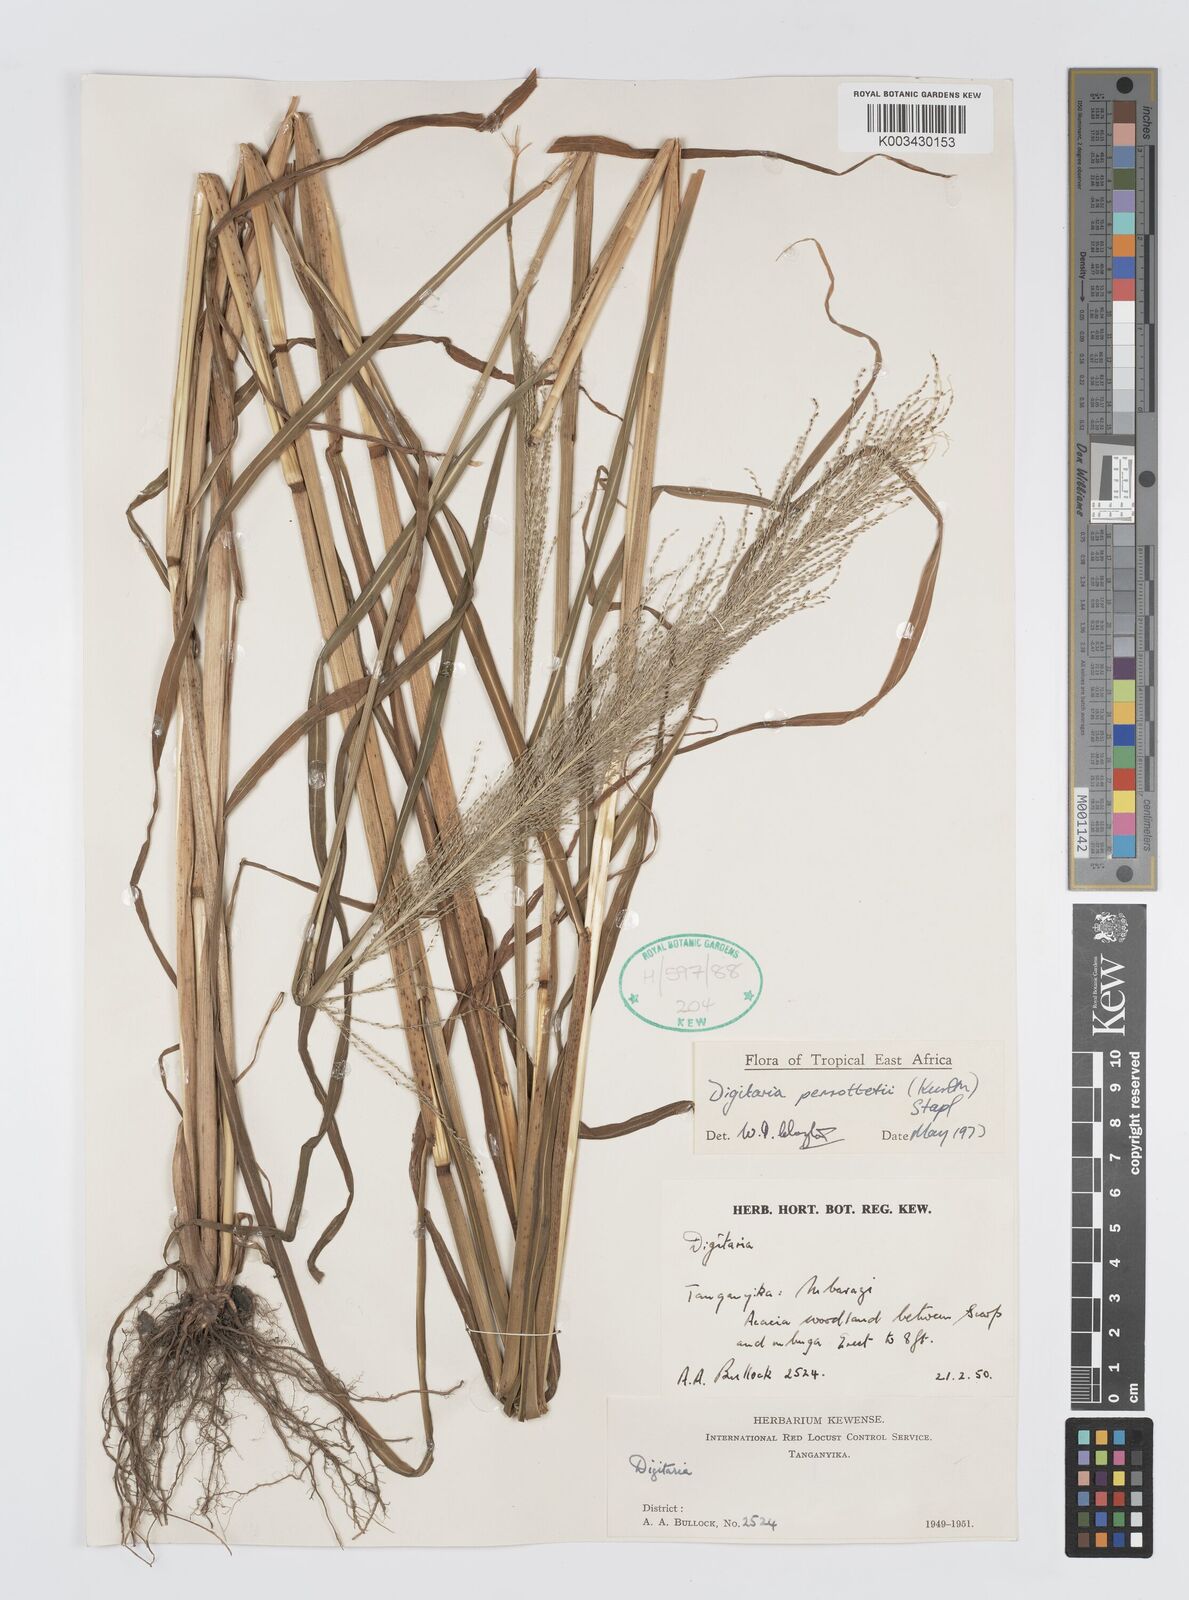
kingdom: Plantae
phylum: Tracheophyta
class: Liliopsida
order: Poales
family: Poaceae
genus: Digitaria
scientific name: Digitaria perrottetii
